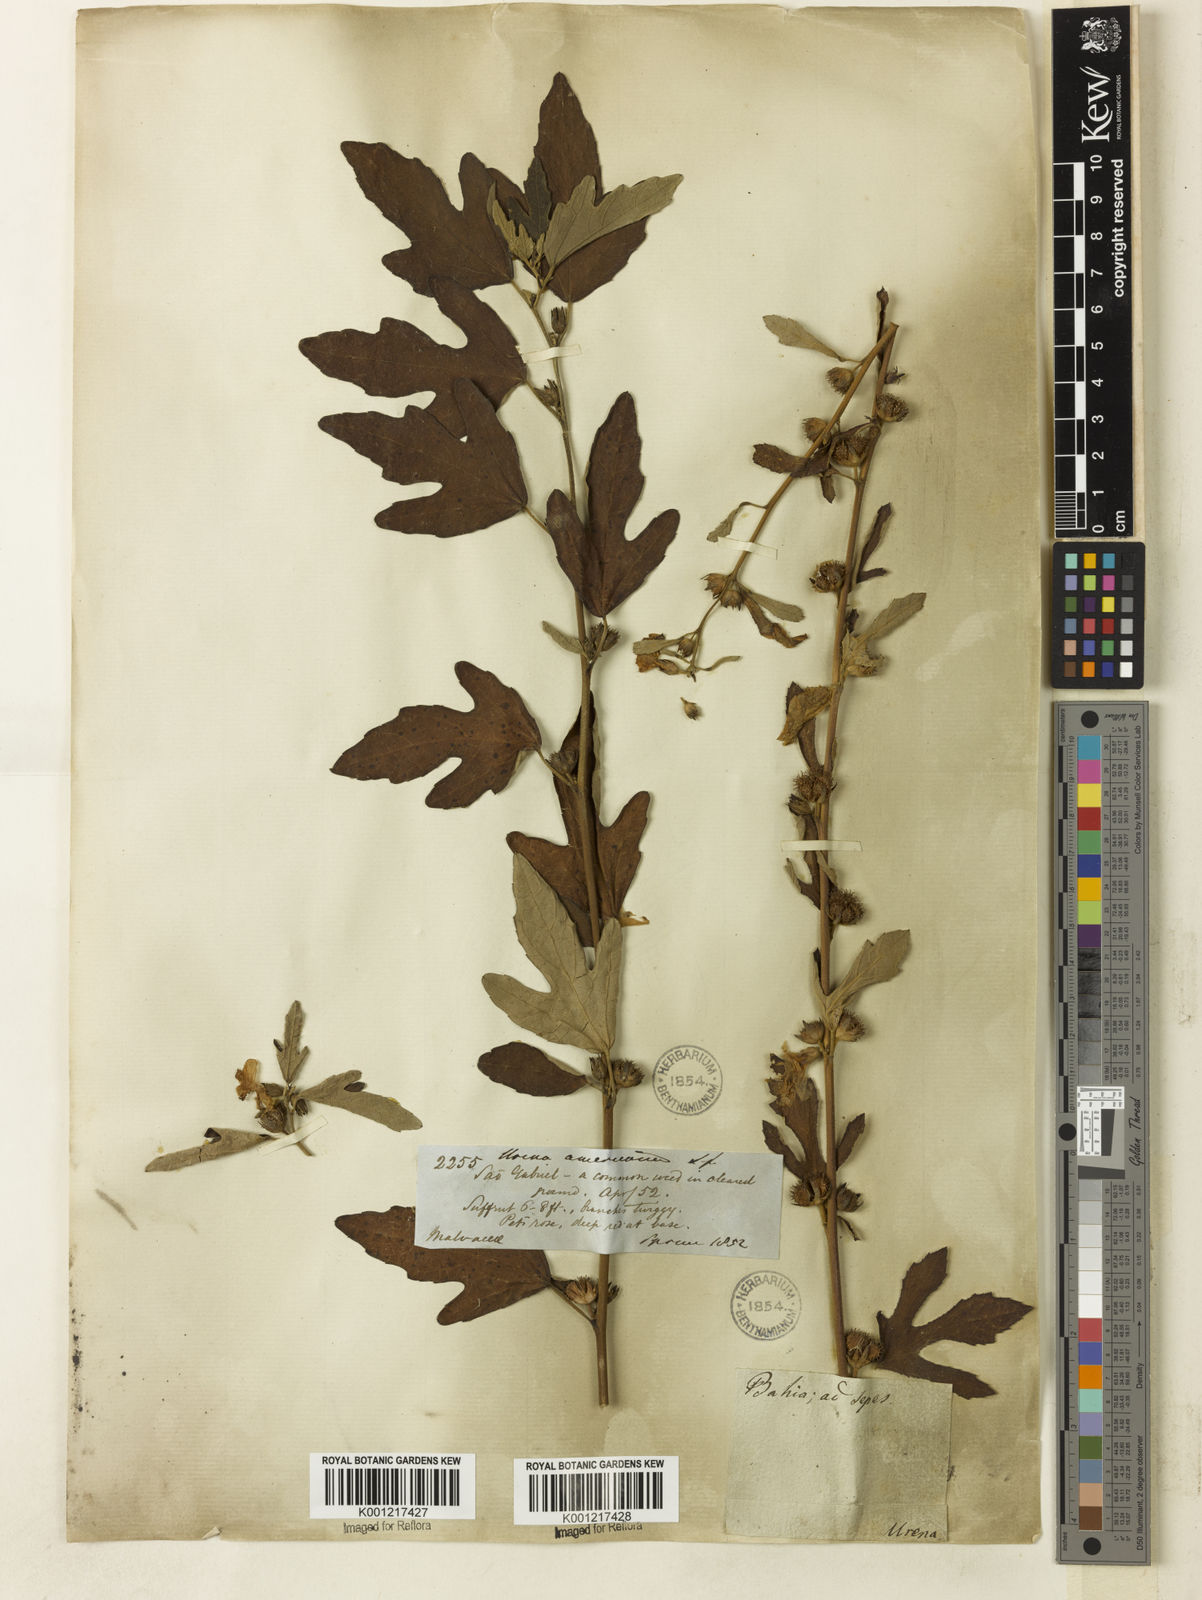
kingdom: Plantae
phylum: Tracheophyta
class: Magnoliopsida
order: Malvales
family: Malvaceae
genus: Urena
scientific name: Urena lobata
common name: Caesarweed
